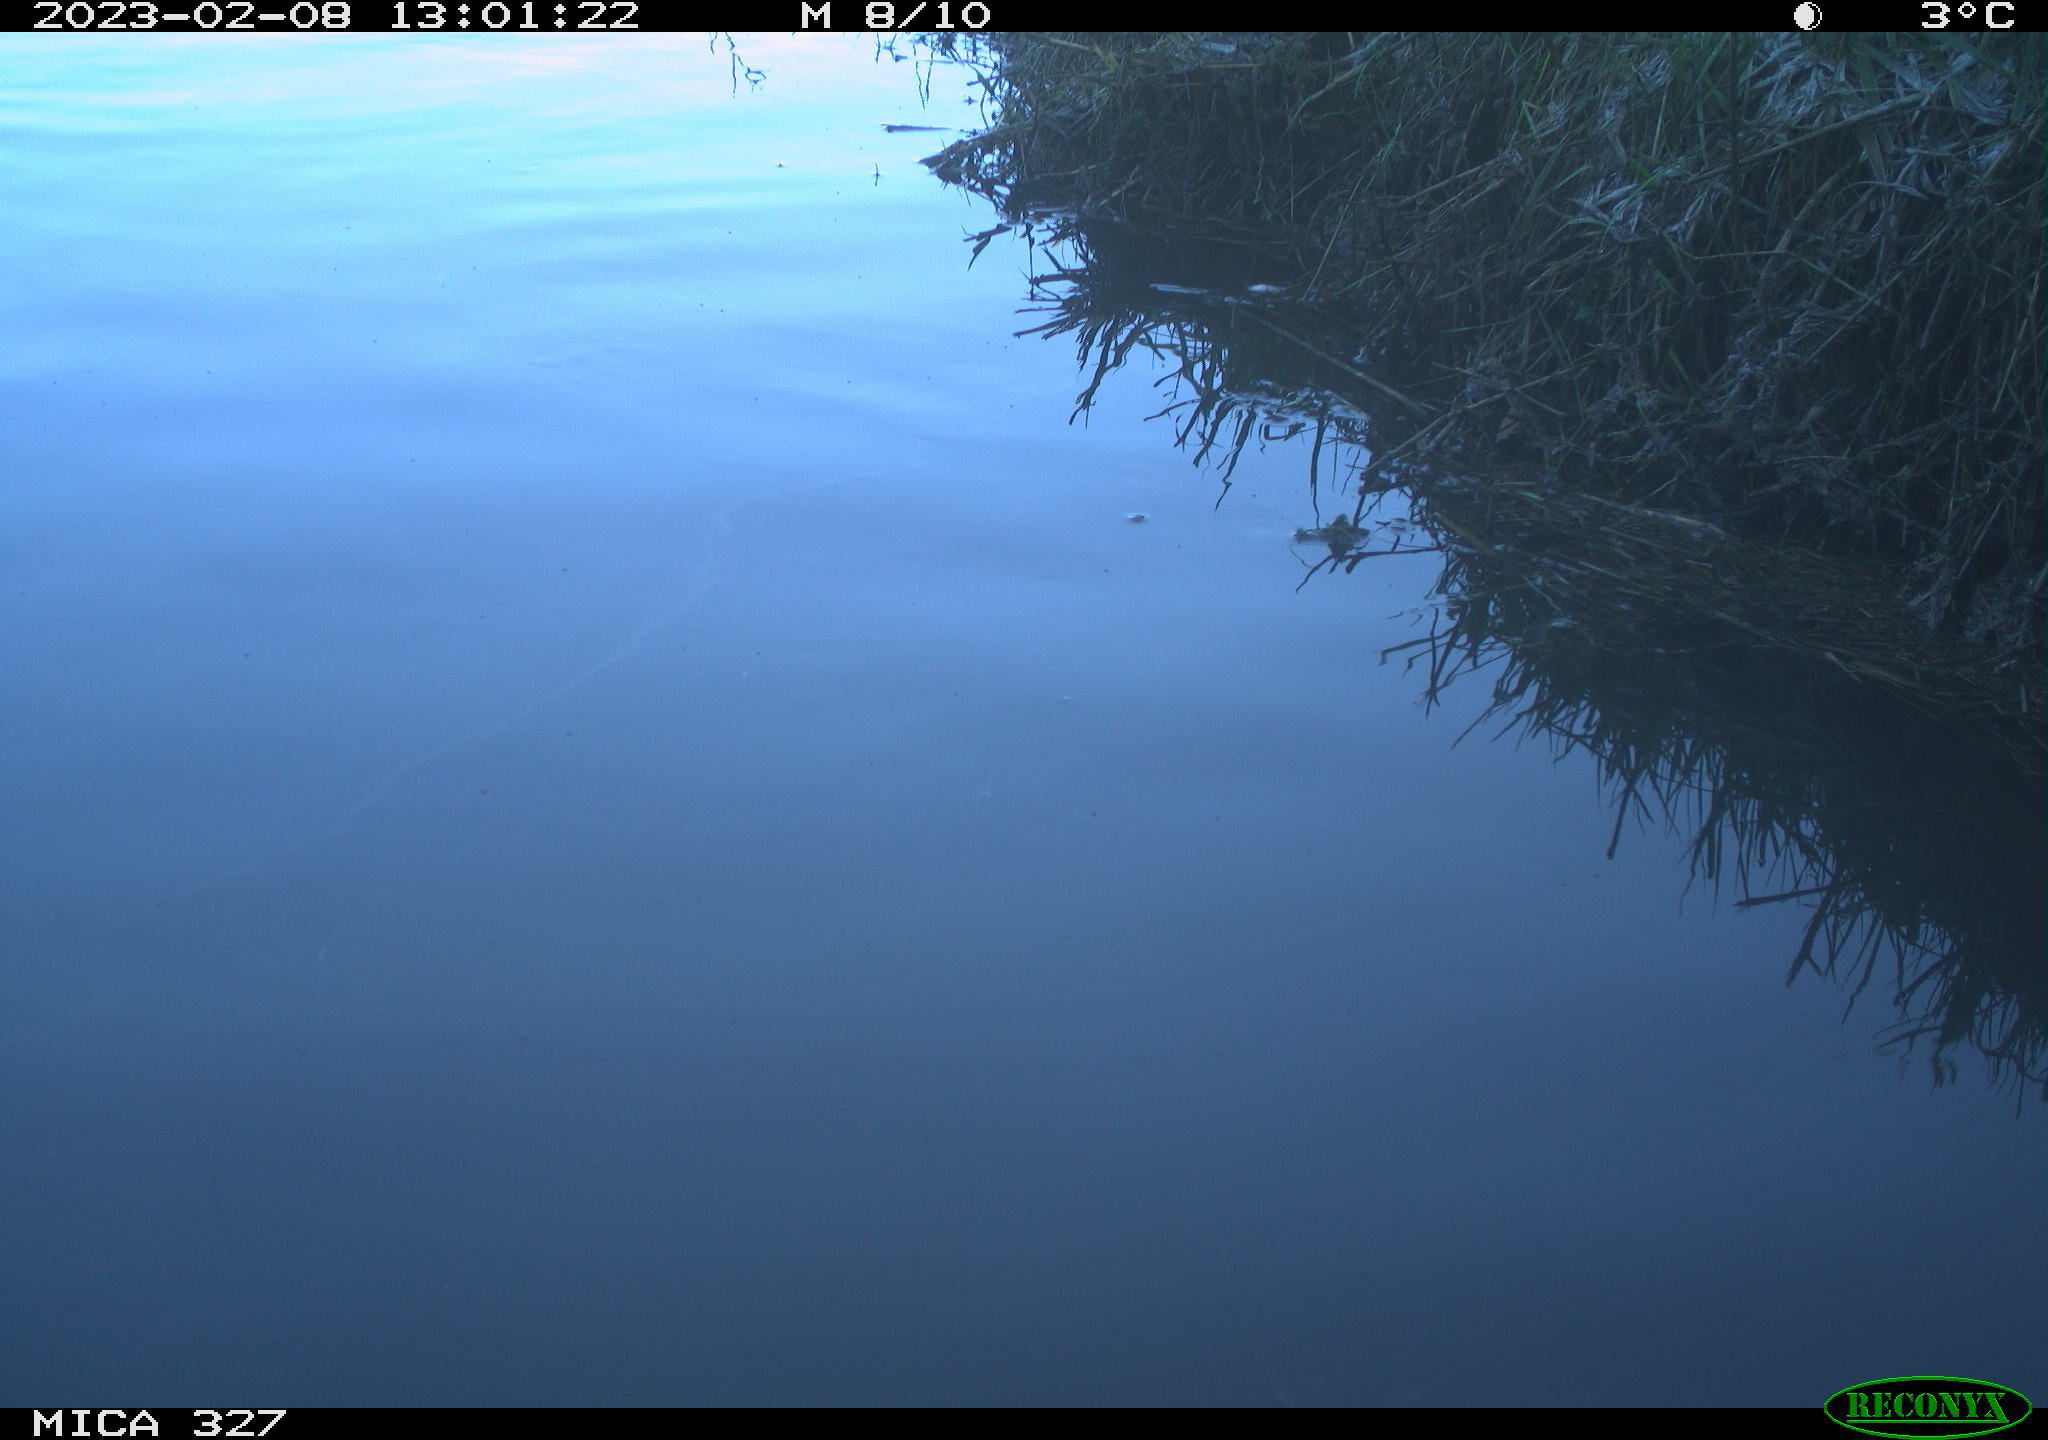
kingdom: Animalia
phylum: Chordata
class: Aves
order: Gruiformes
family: Rallidae
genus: Fulica
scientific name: Fulica atra
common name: Eurasian coot
